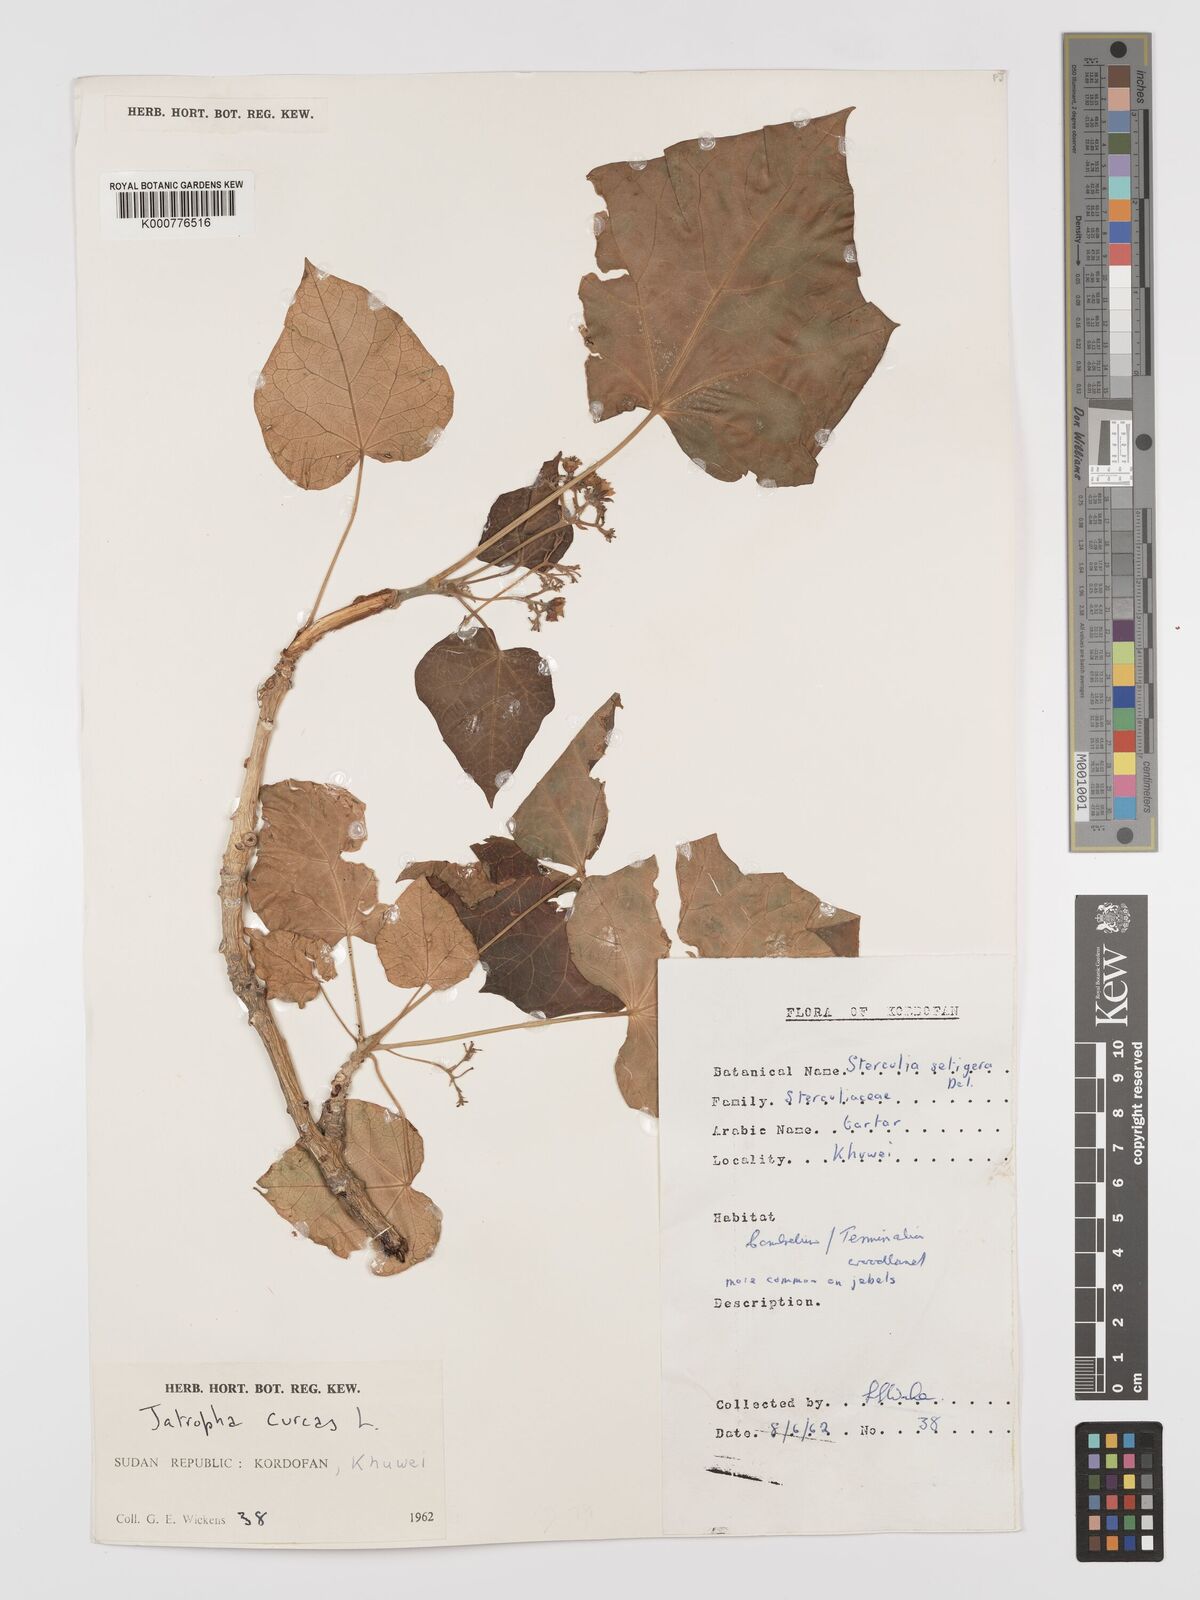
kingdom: Plantae
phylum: Tracheophyta
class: Magnoliopsida
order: Malpighiales
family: Euphorbiaceae
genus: Jatropha
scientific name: Jatropha curcas
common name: Barbados nut
